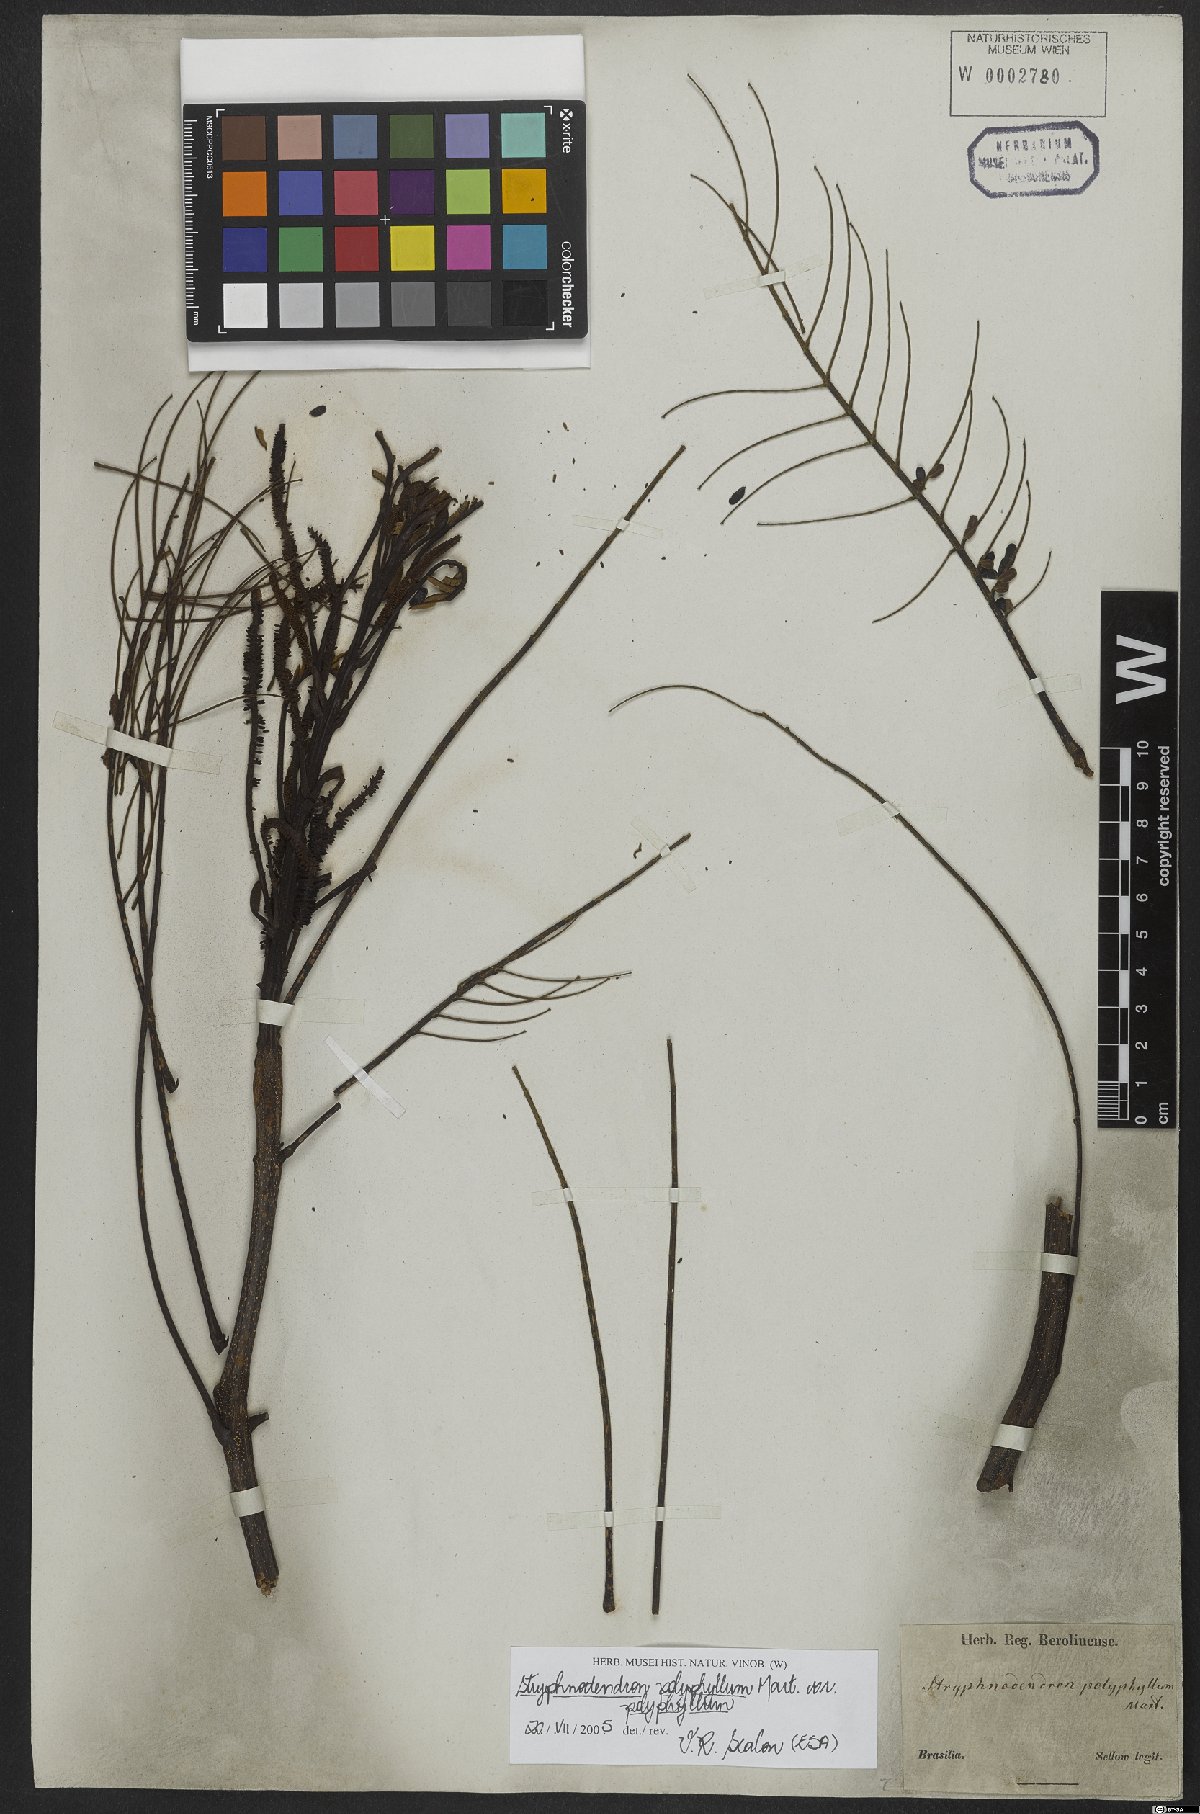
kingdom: Plantae
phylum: Tracheophyta
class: Magnoliopsida
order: Fabales
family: Fabaceae
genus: Stryphnodendron
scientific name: Stryphnodendron polyphyllum
